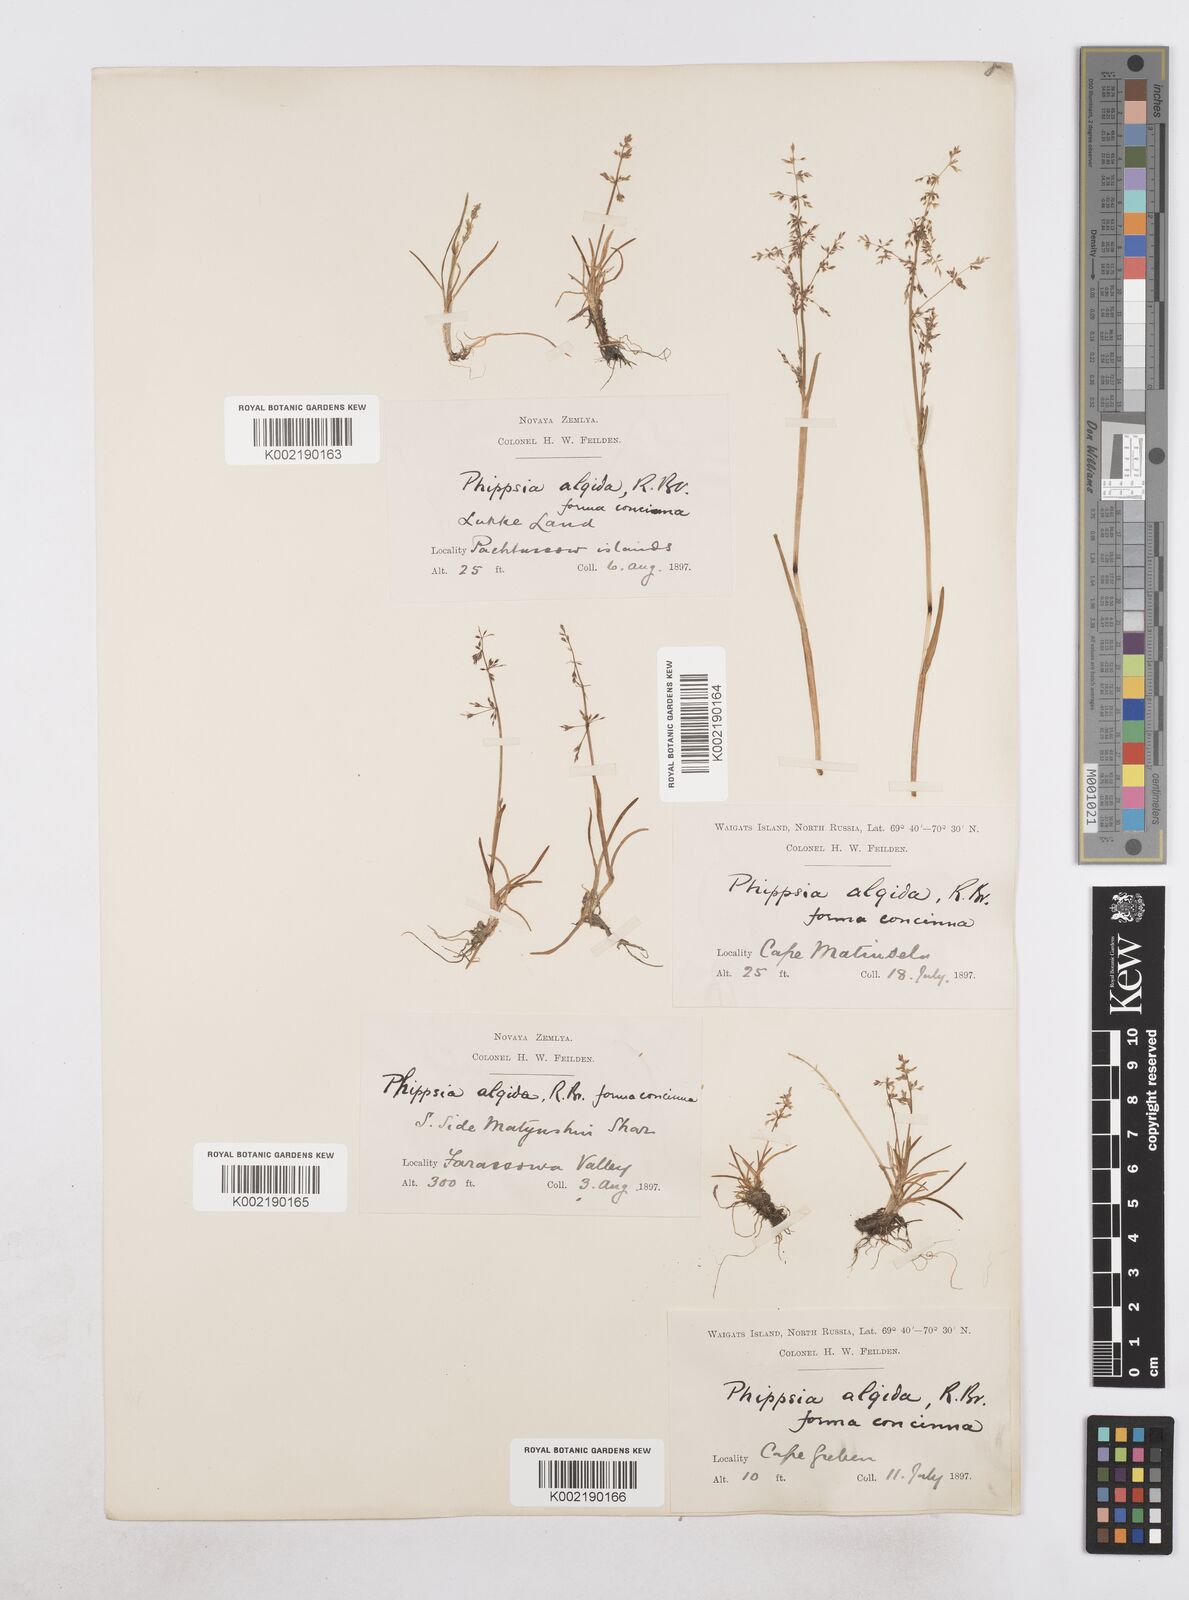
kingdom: Plantae
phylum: Tracheophyta
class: Liliopsida
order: Poales
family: Poaceae
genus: Phippsia
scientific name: Phippsia concinna
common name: Snowgrass
